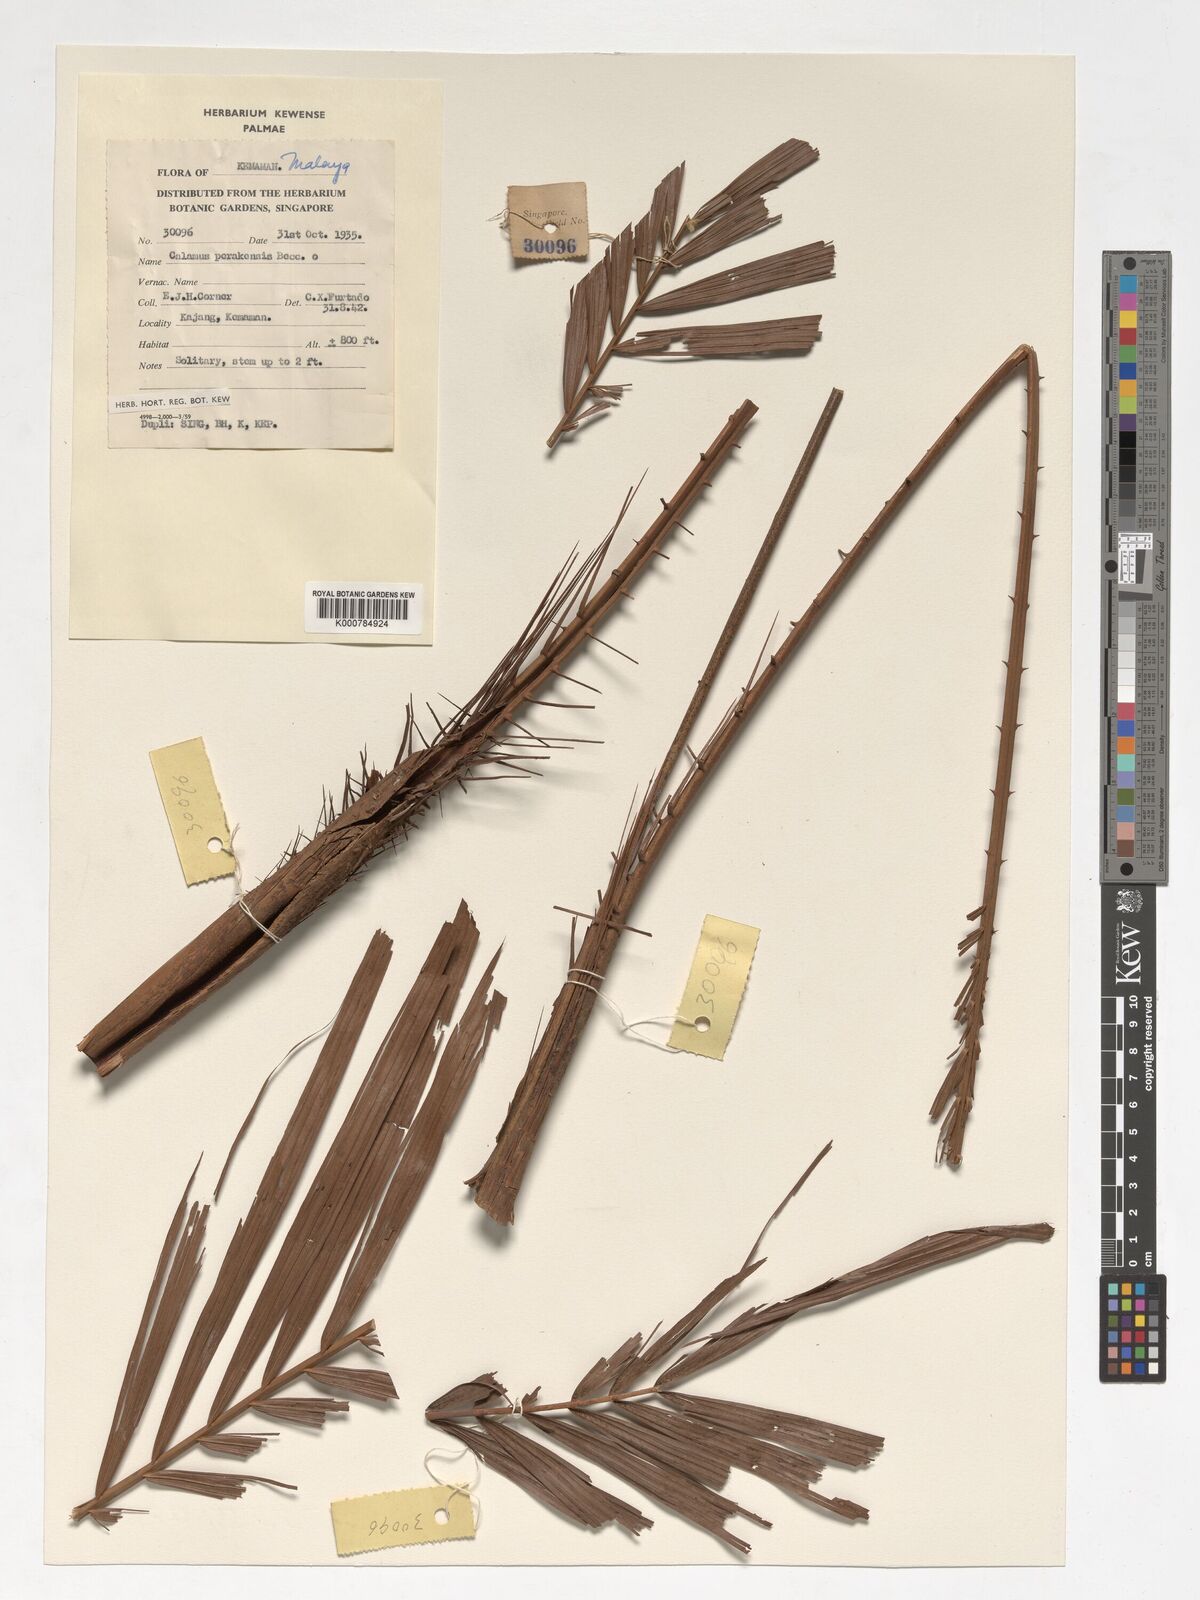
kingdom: Plantae
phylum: Tracheophyta
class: Liliopsida
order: Arecales
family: Arecaceae
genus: Calamus
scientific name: Calamus perakensis
